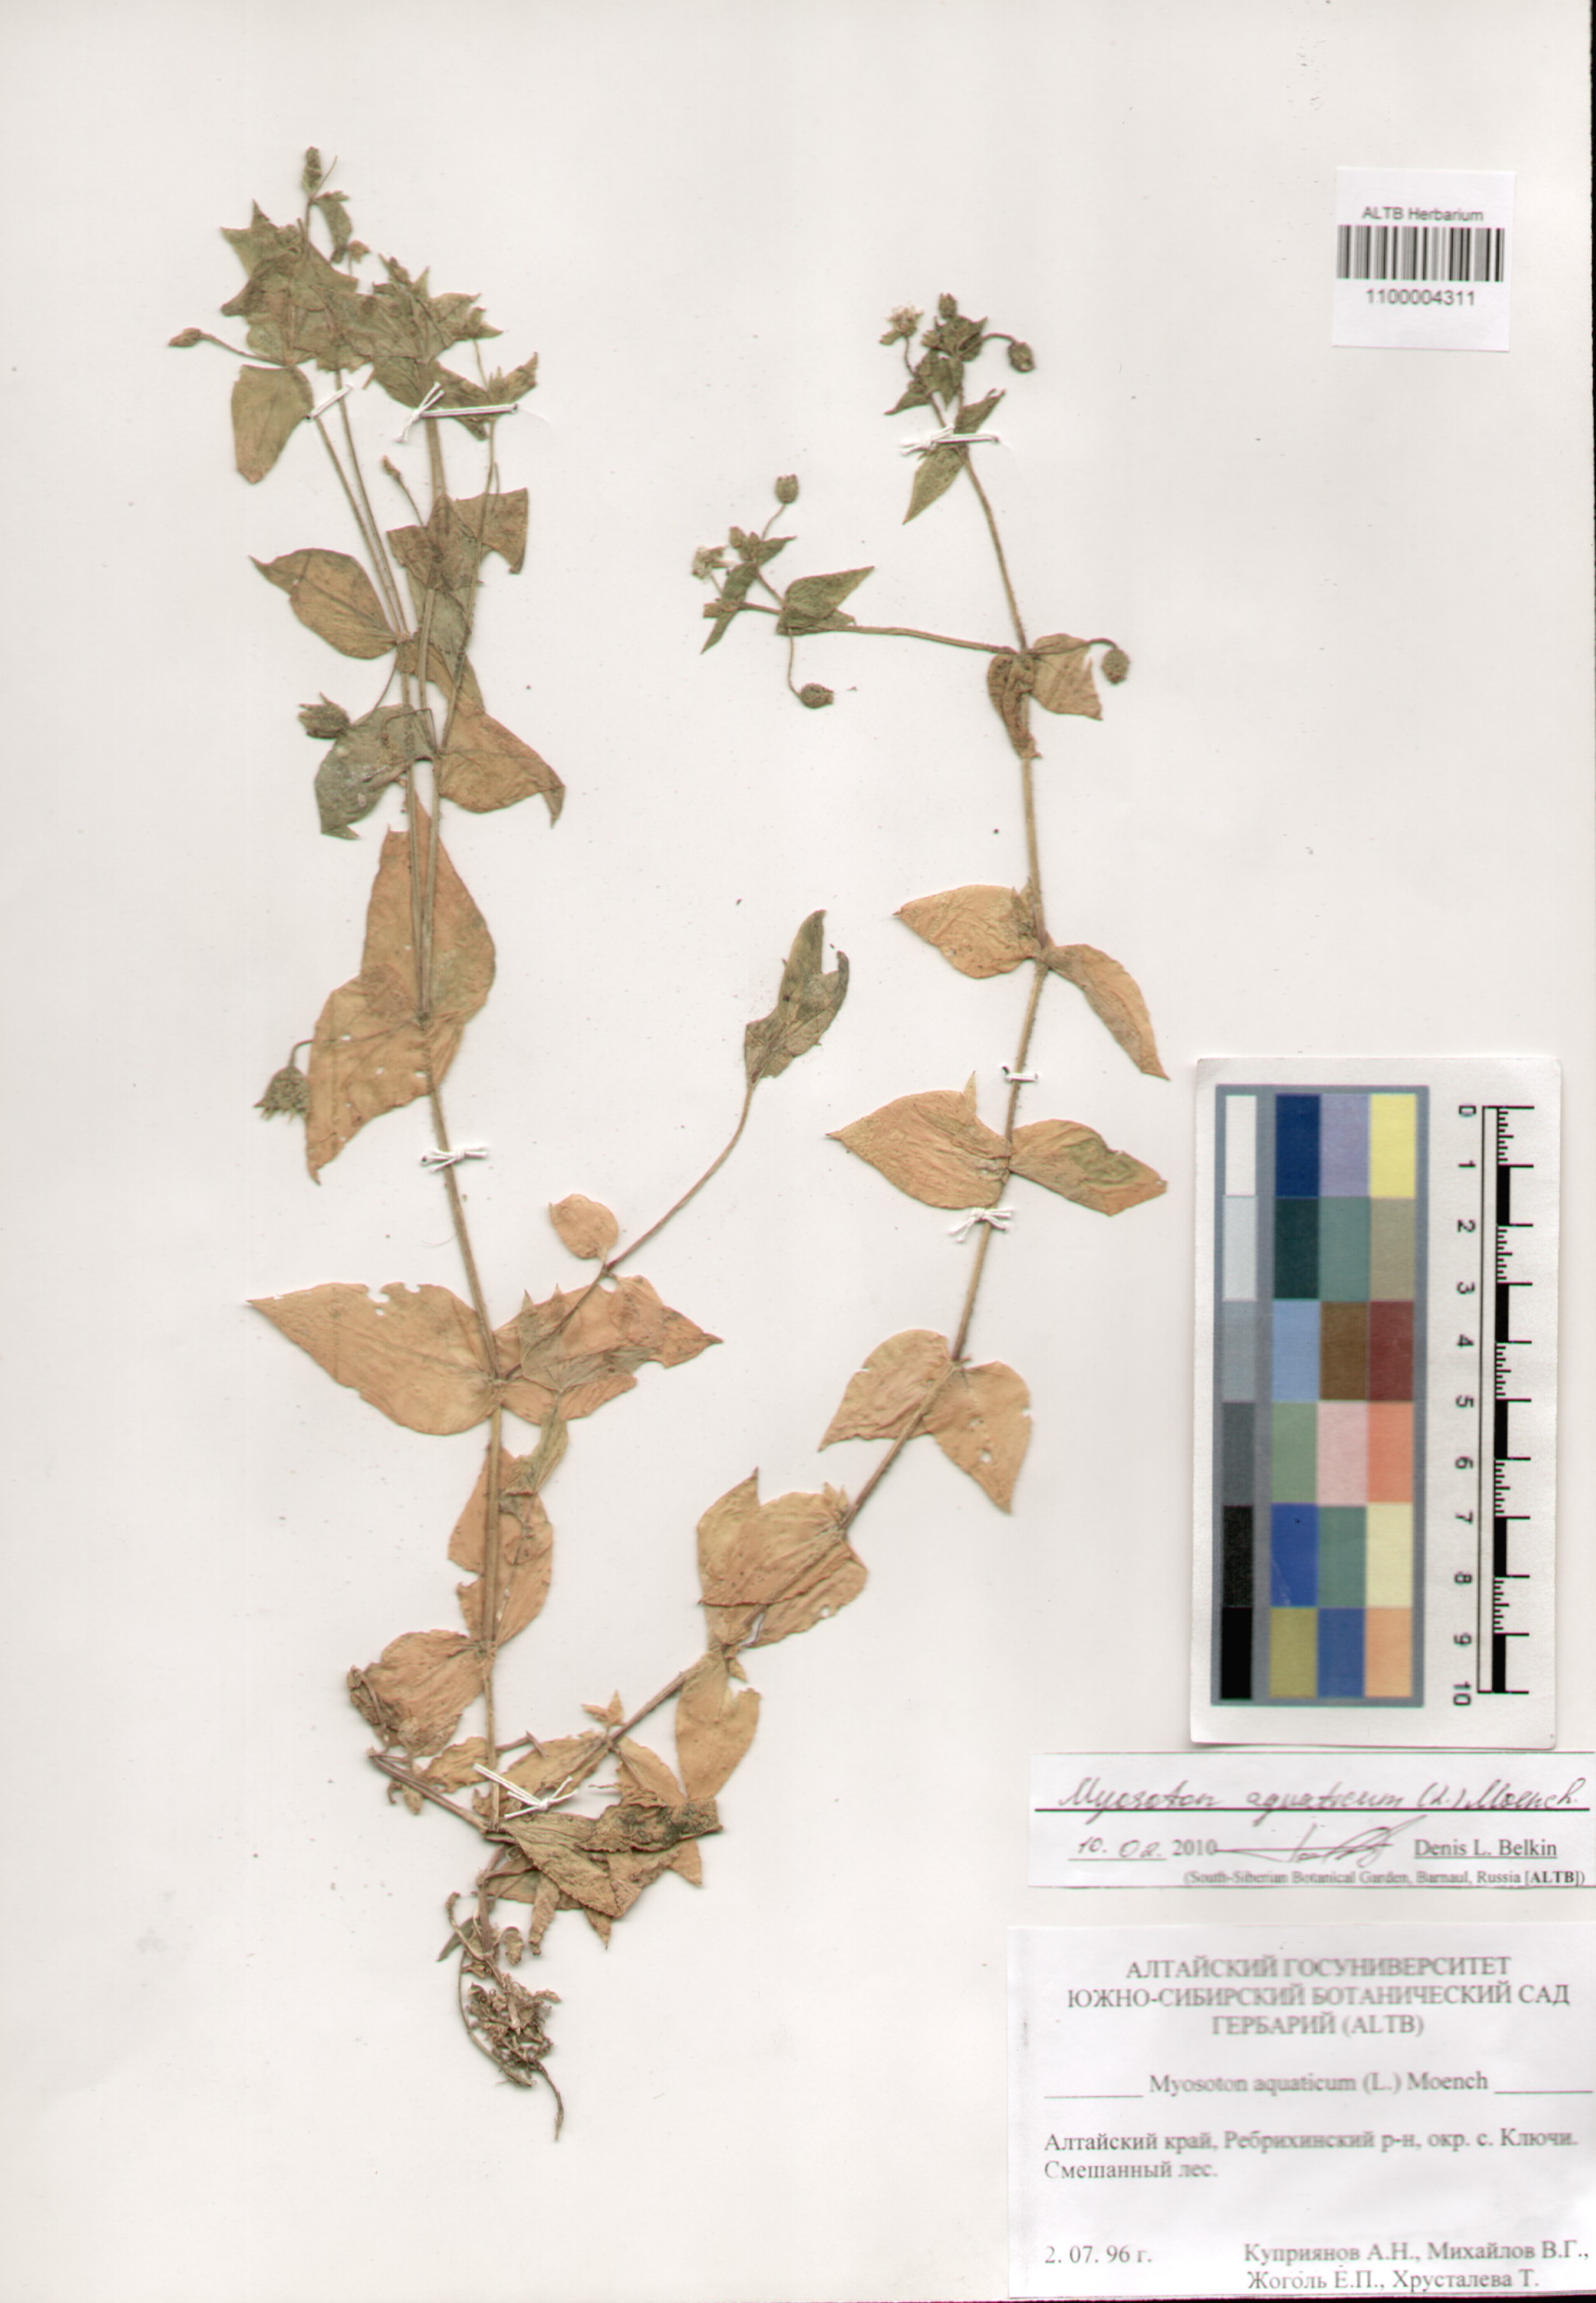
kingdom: Plantae
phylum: Tracheophyta
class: Magnoliopsida
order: Caryophyllales
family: Caryophyllaceae
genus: Stellaria
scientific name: Stellaria aquatica
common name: Water chickweed
